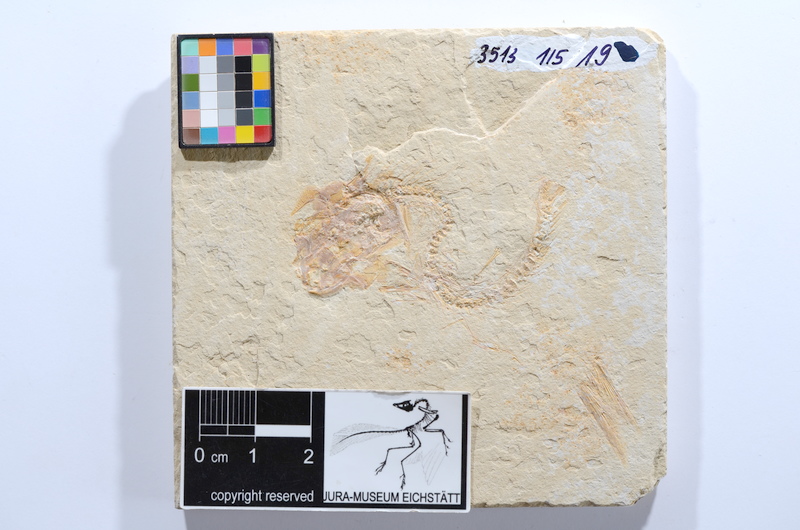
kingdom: Animalia
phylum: Chordata
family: Ascalaboidae
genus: Tharsis
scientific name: Tharsis dubius
